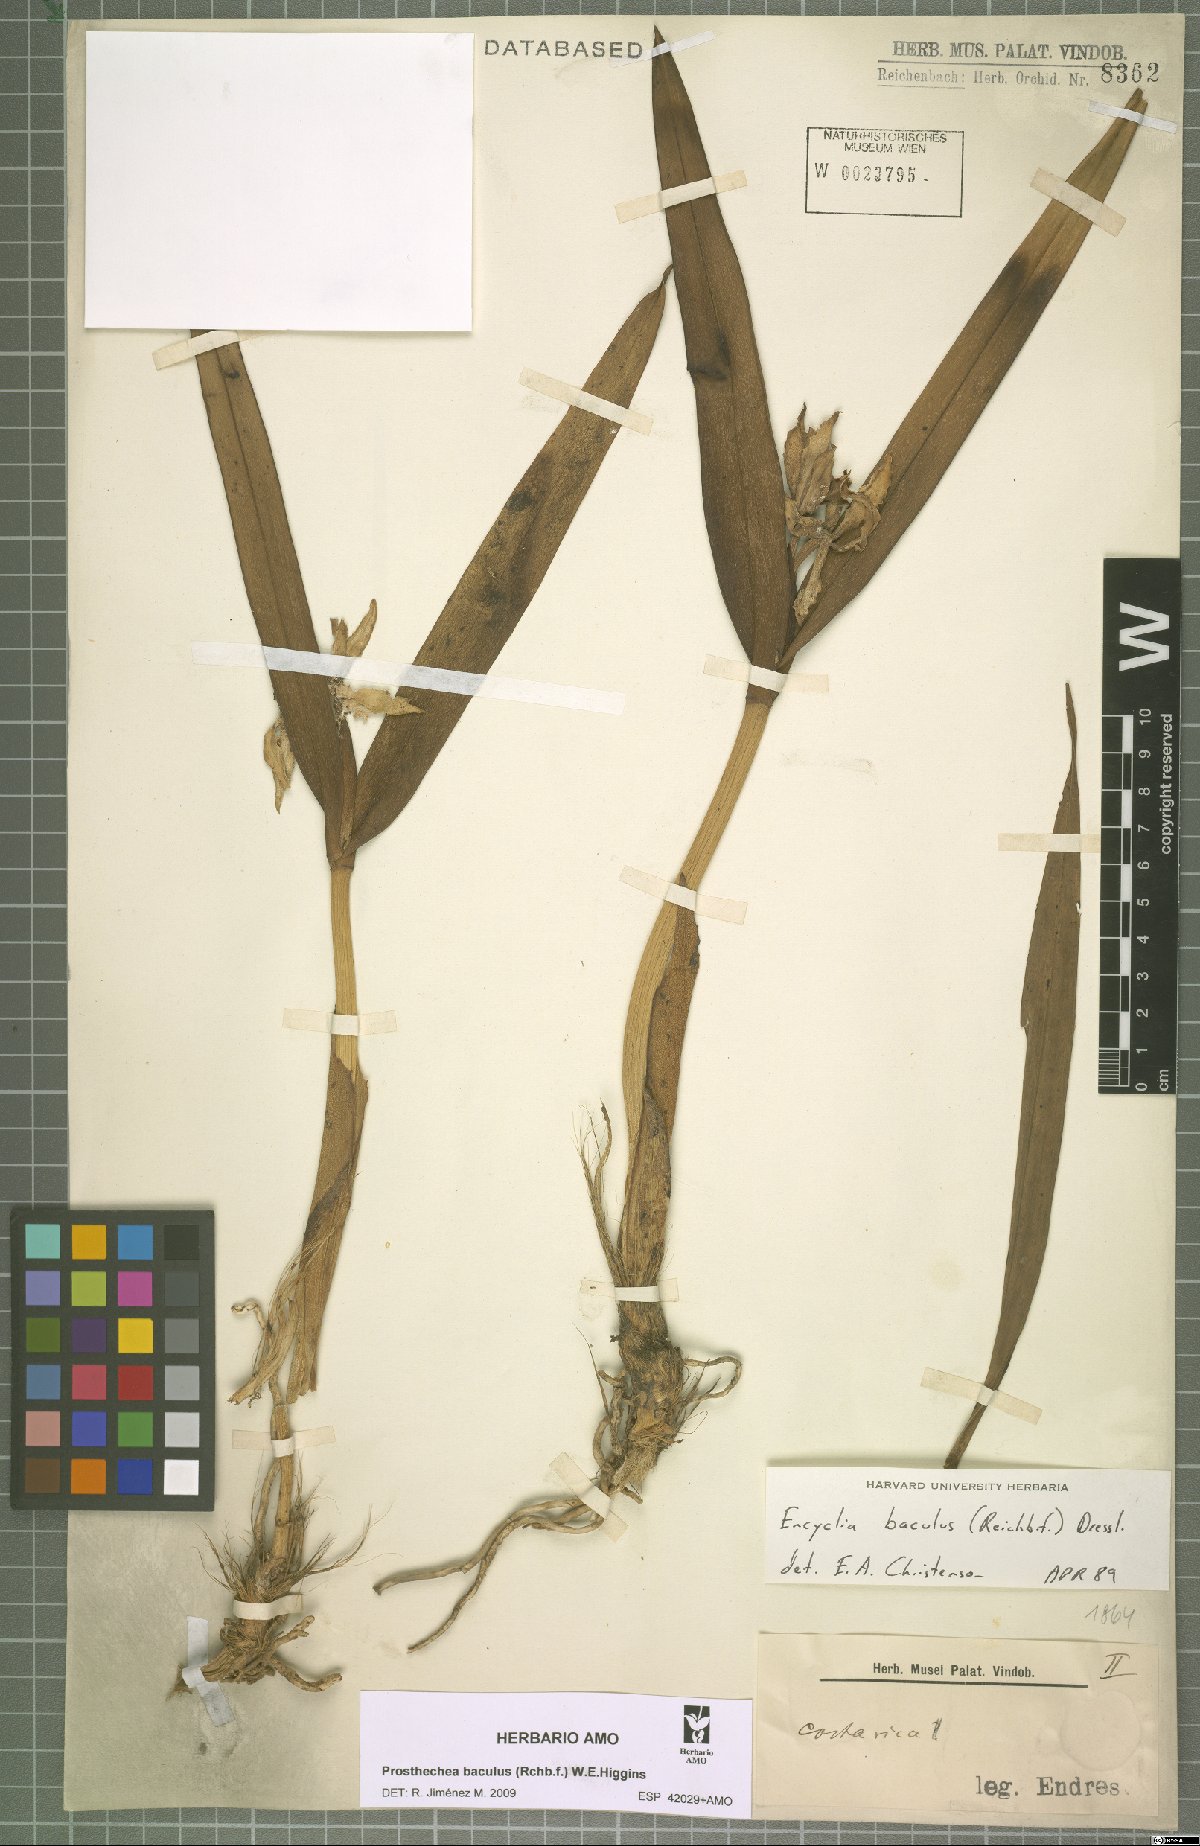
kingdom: Plantae
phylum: Tracheophyta
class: Liliopsida
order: Asparagales
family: Orchidaceae
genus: Prosthechea
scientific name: Prosthechea baculus
